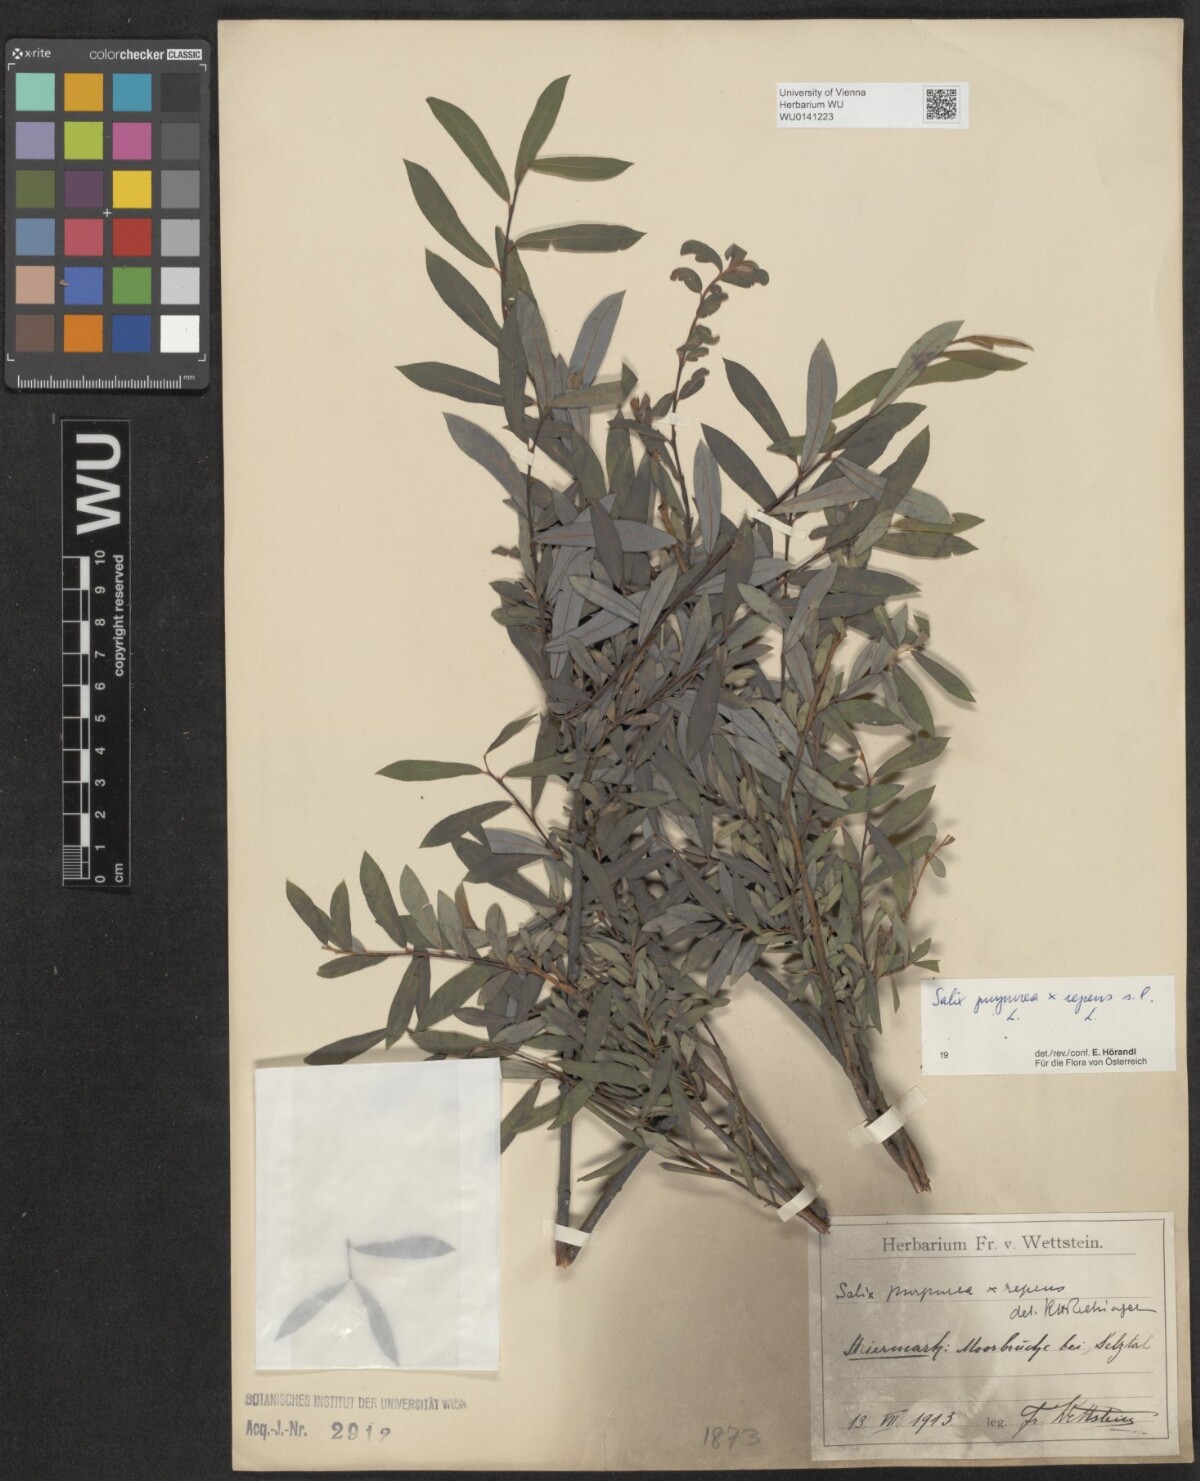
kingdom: Plantae
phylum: Tracheophyta
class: Magnoliopsida
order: Malpighiales
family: Salicaceae
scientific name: Salicaceae
